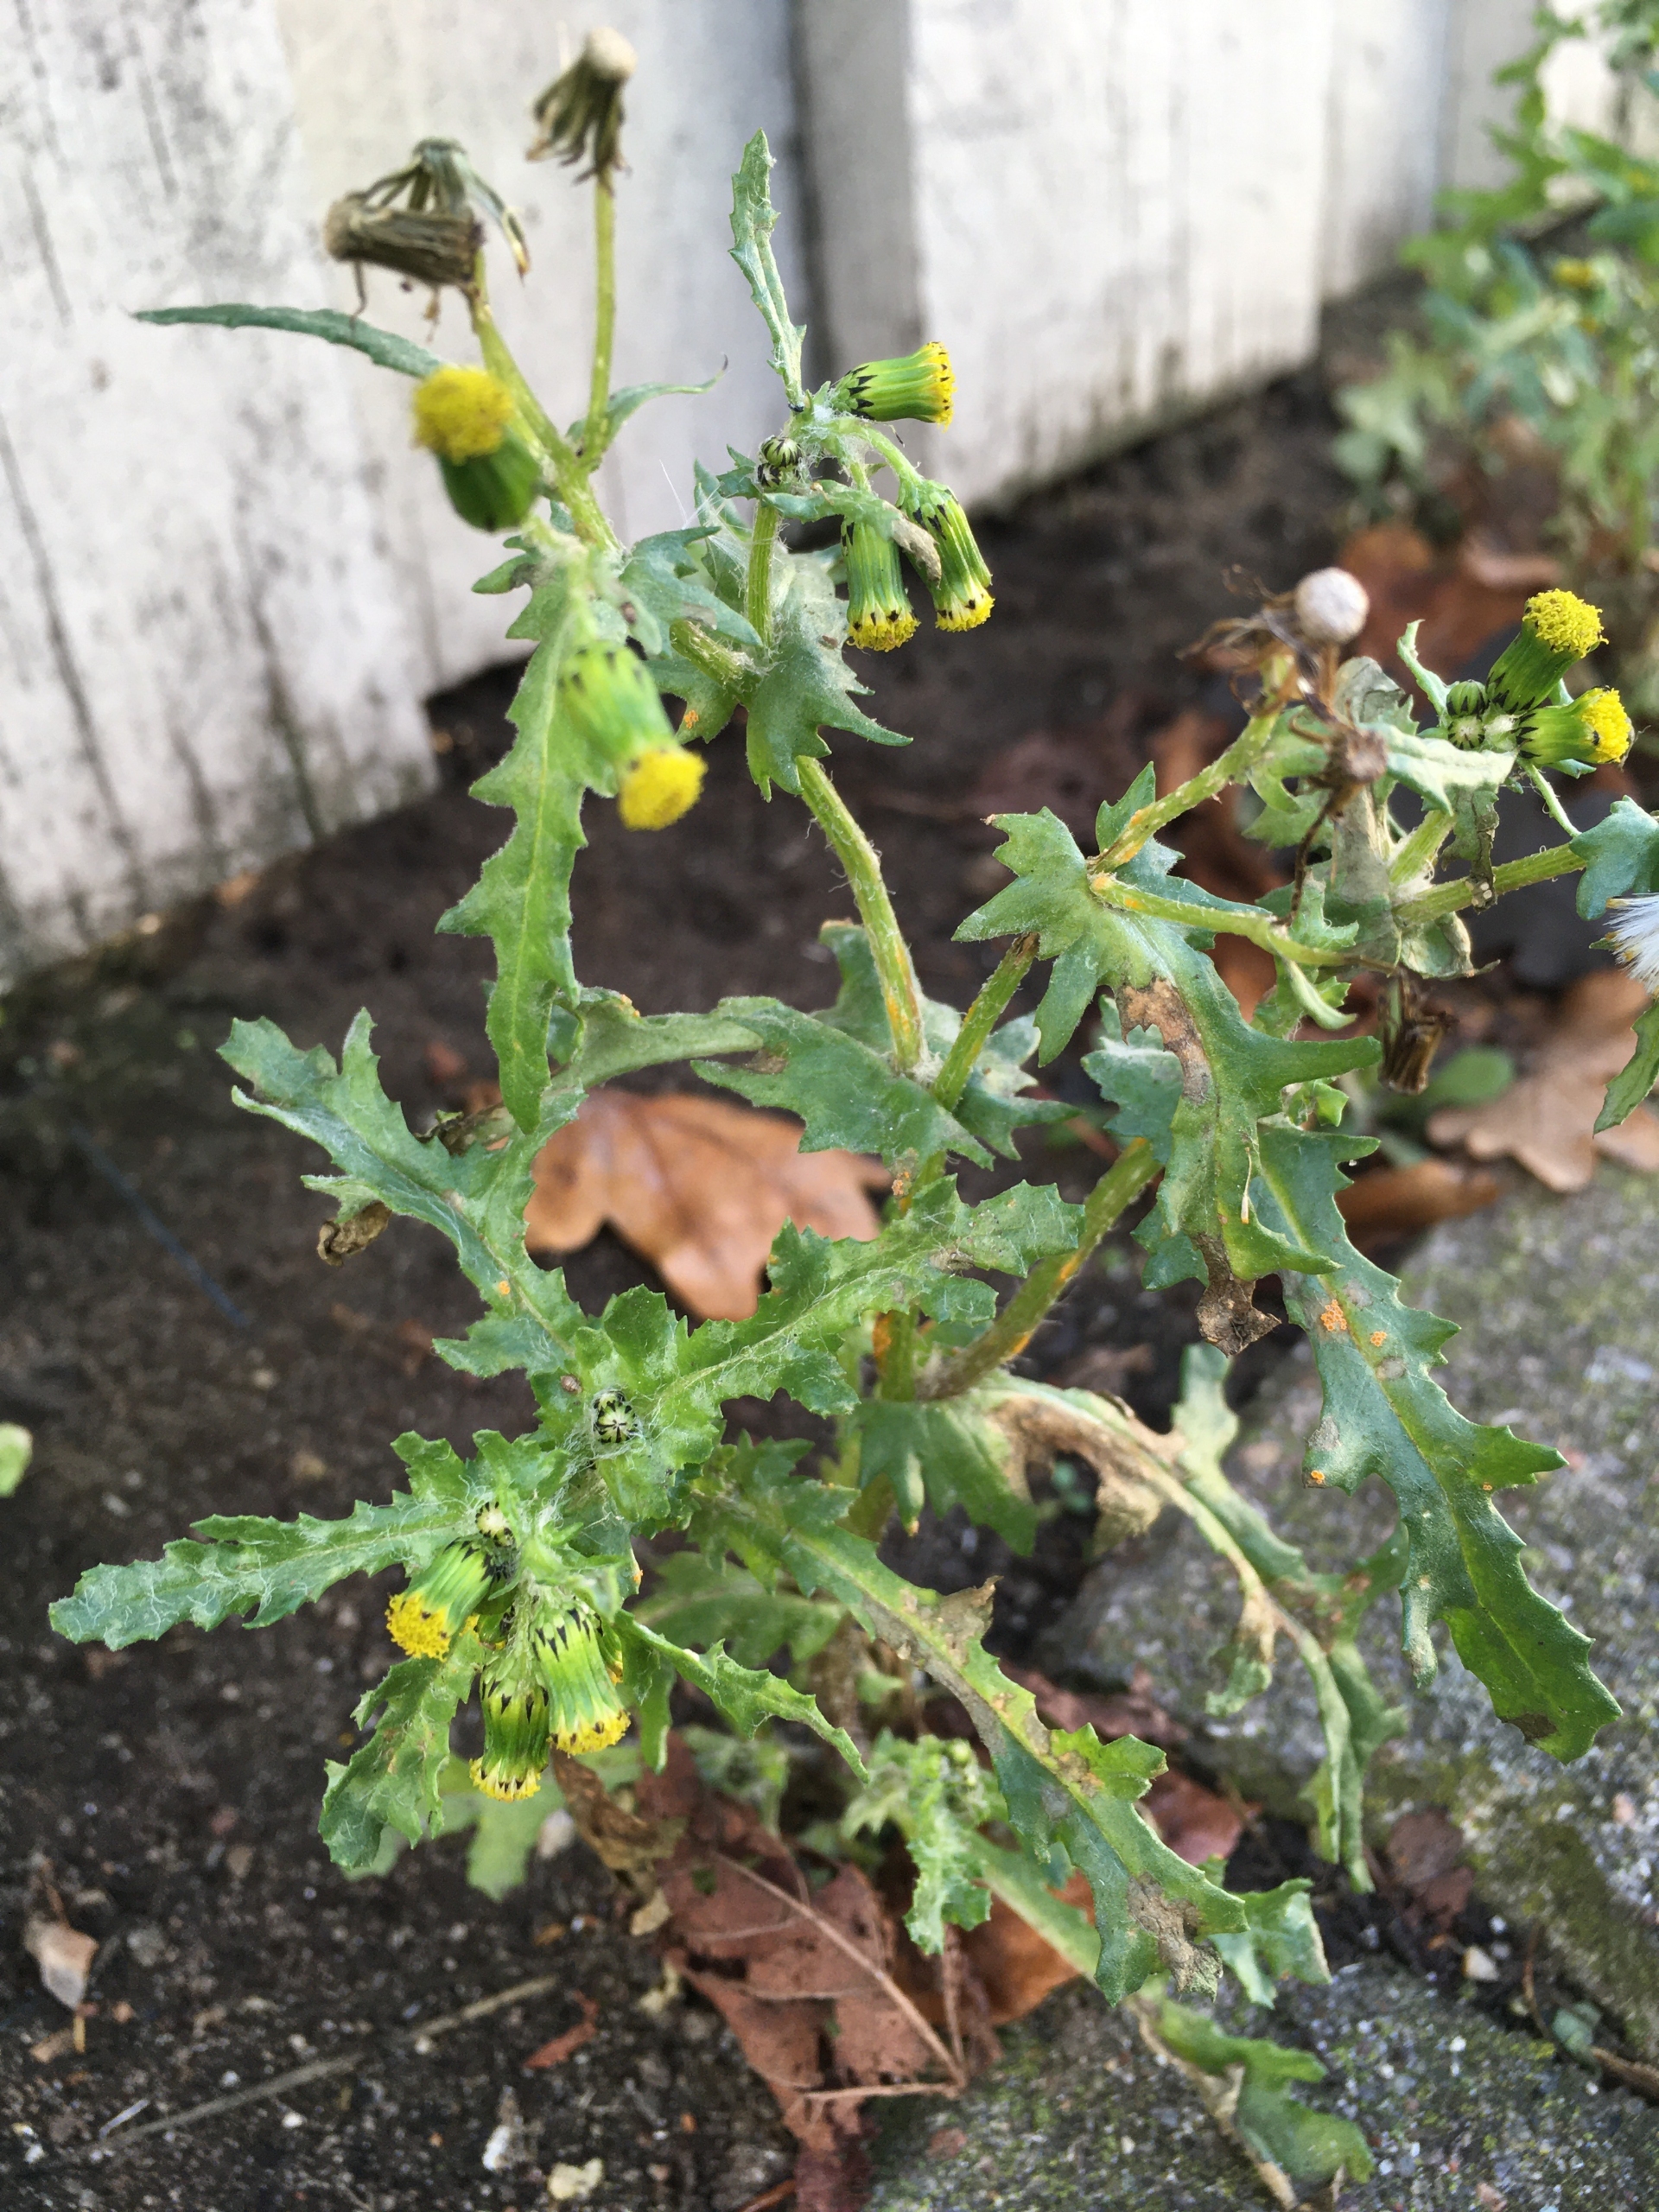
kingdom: Plantae
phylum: Tracheophyta
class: Magnoliopsida
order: Asterales
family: Asteraceae
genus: Senecio
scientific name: Senecio vulgaris
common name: Almindelig brandbæger
